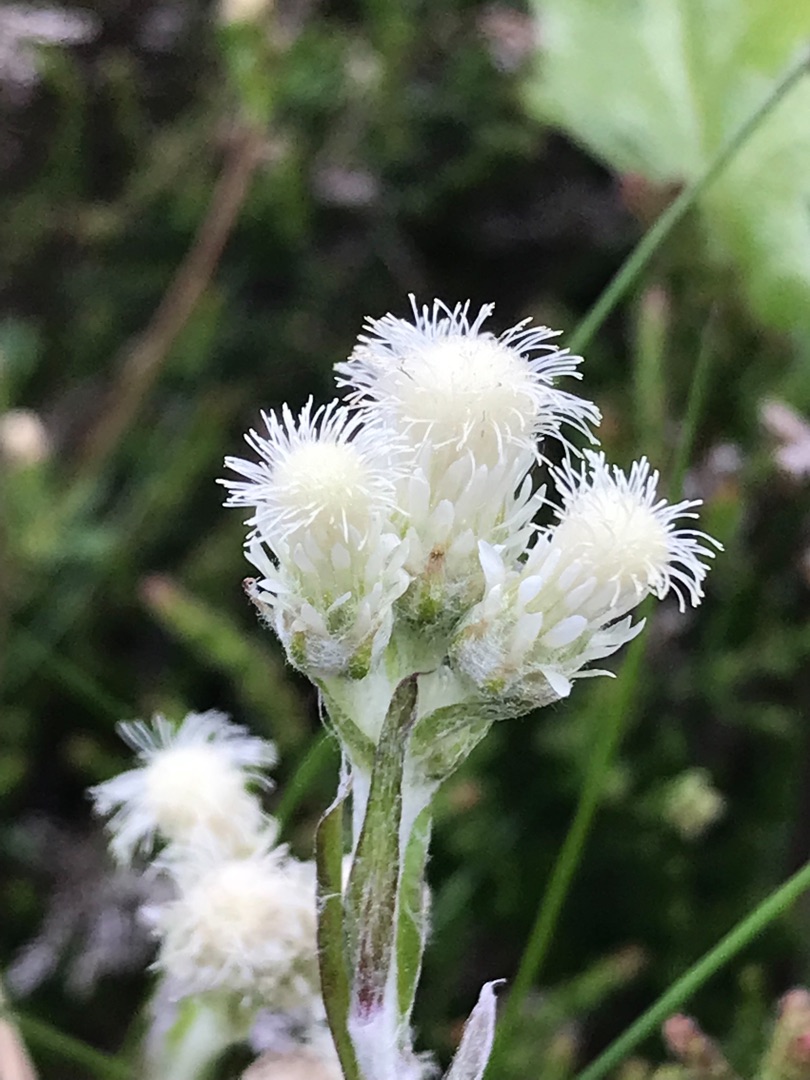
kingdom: Plantae
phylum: Tracheophyta
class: Magnoliopsida
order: Asterales
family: Asteraceae
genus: Antennaria
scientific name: Antennaria dioica
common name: Kattefod
